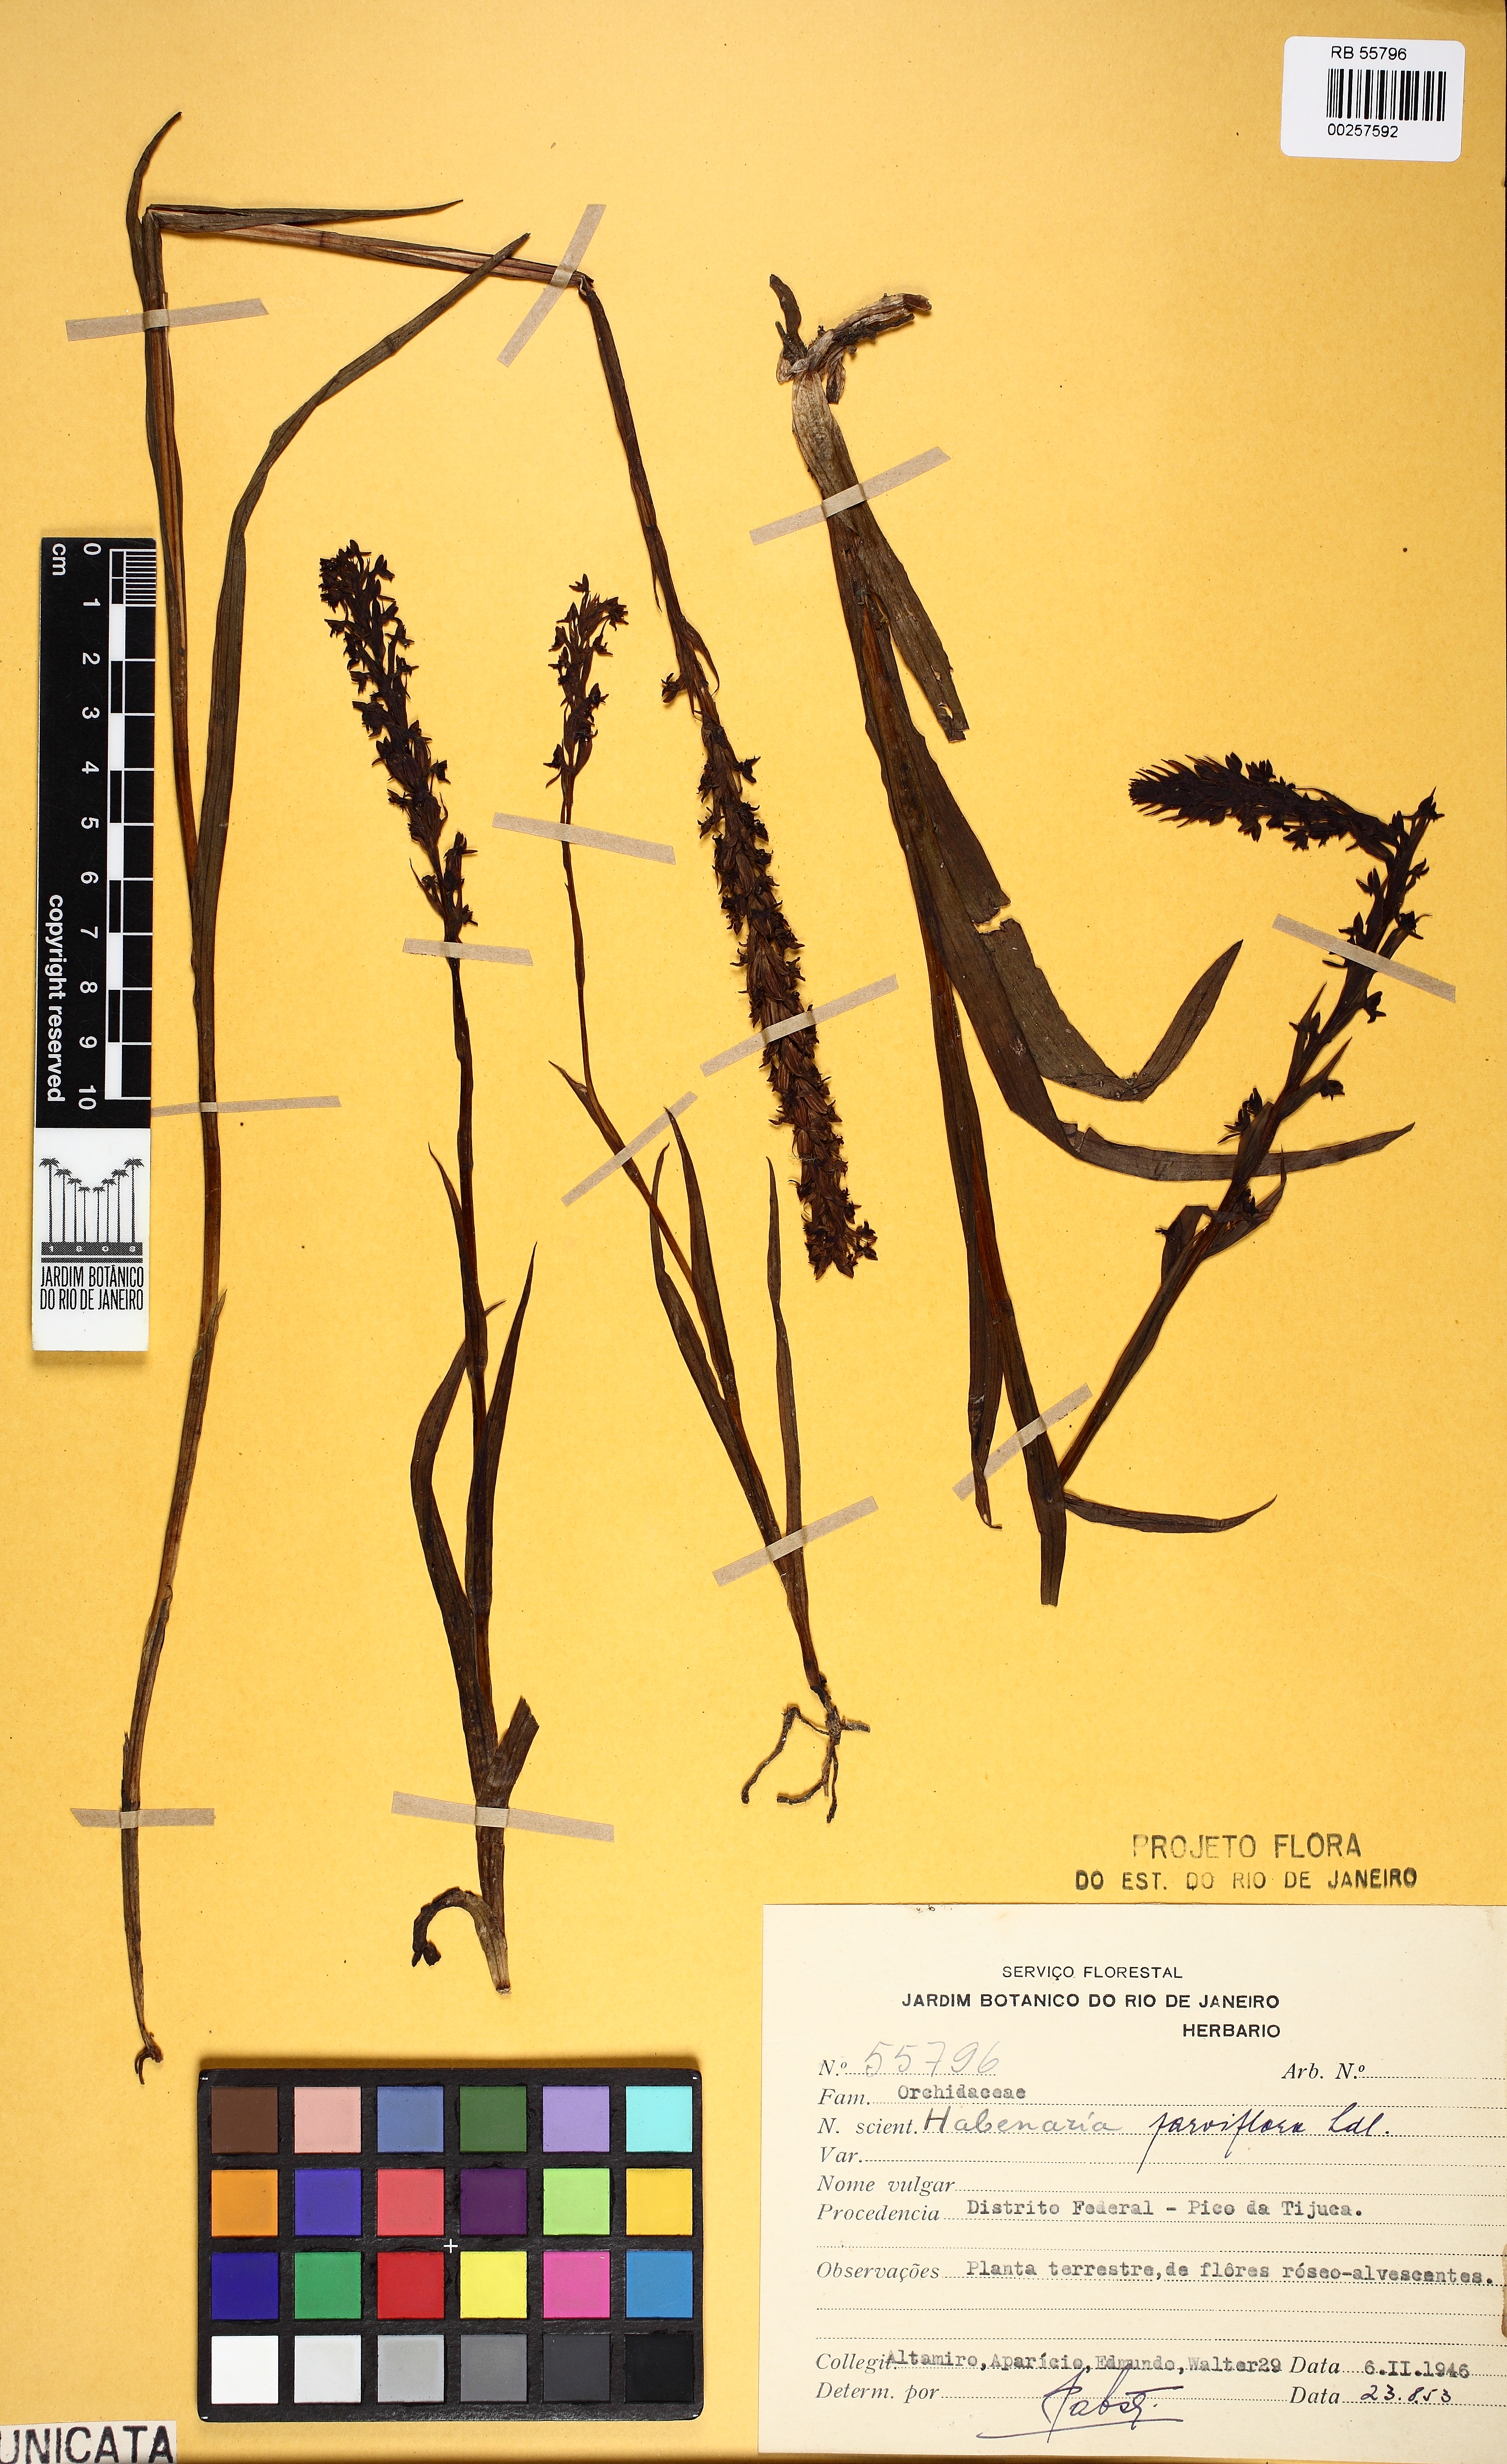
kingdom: Plantae
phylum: Tracheophyta
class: Liliopsida
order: Asparagales
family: Orchidaceae
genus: Habenaria
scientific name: Habenaria parviflora
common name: Small flowered habenaria
